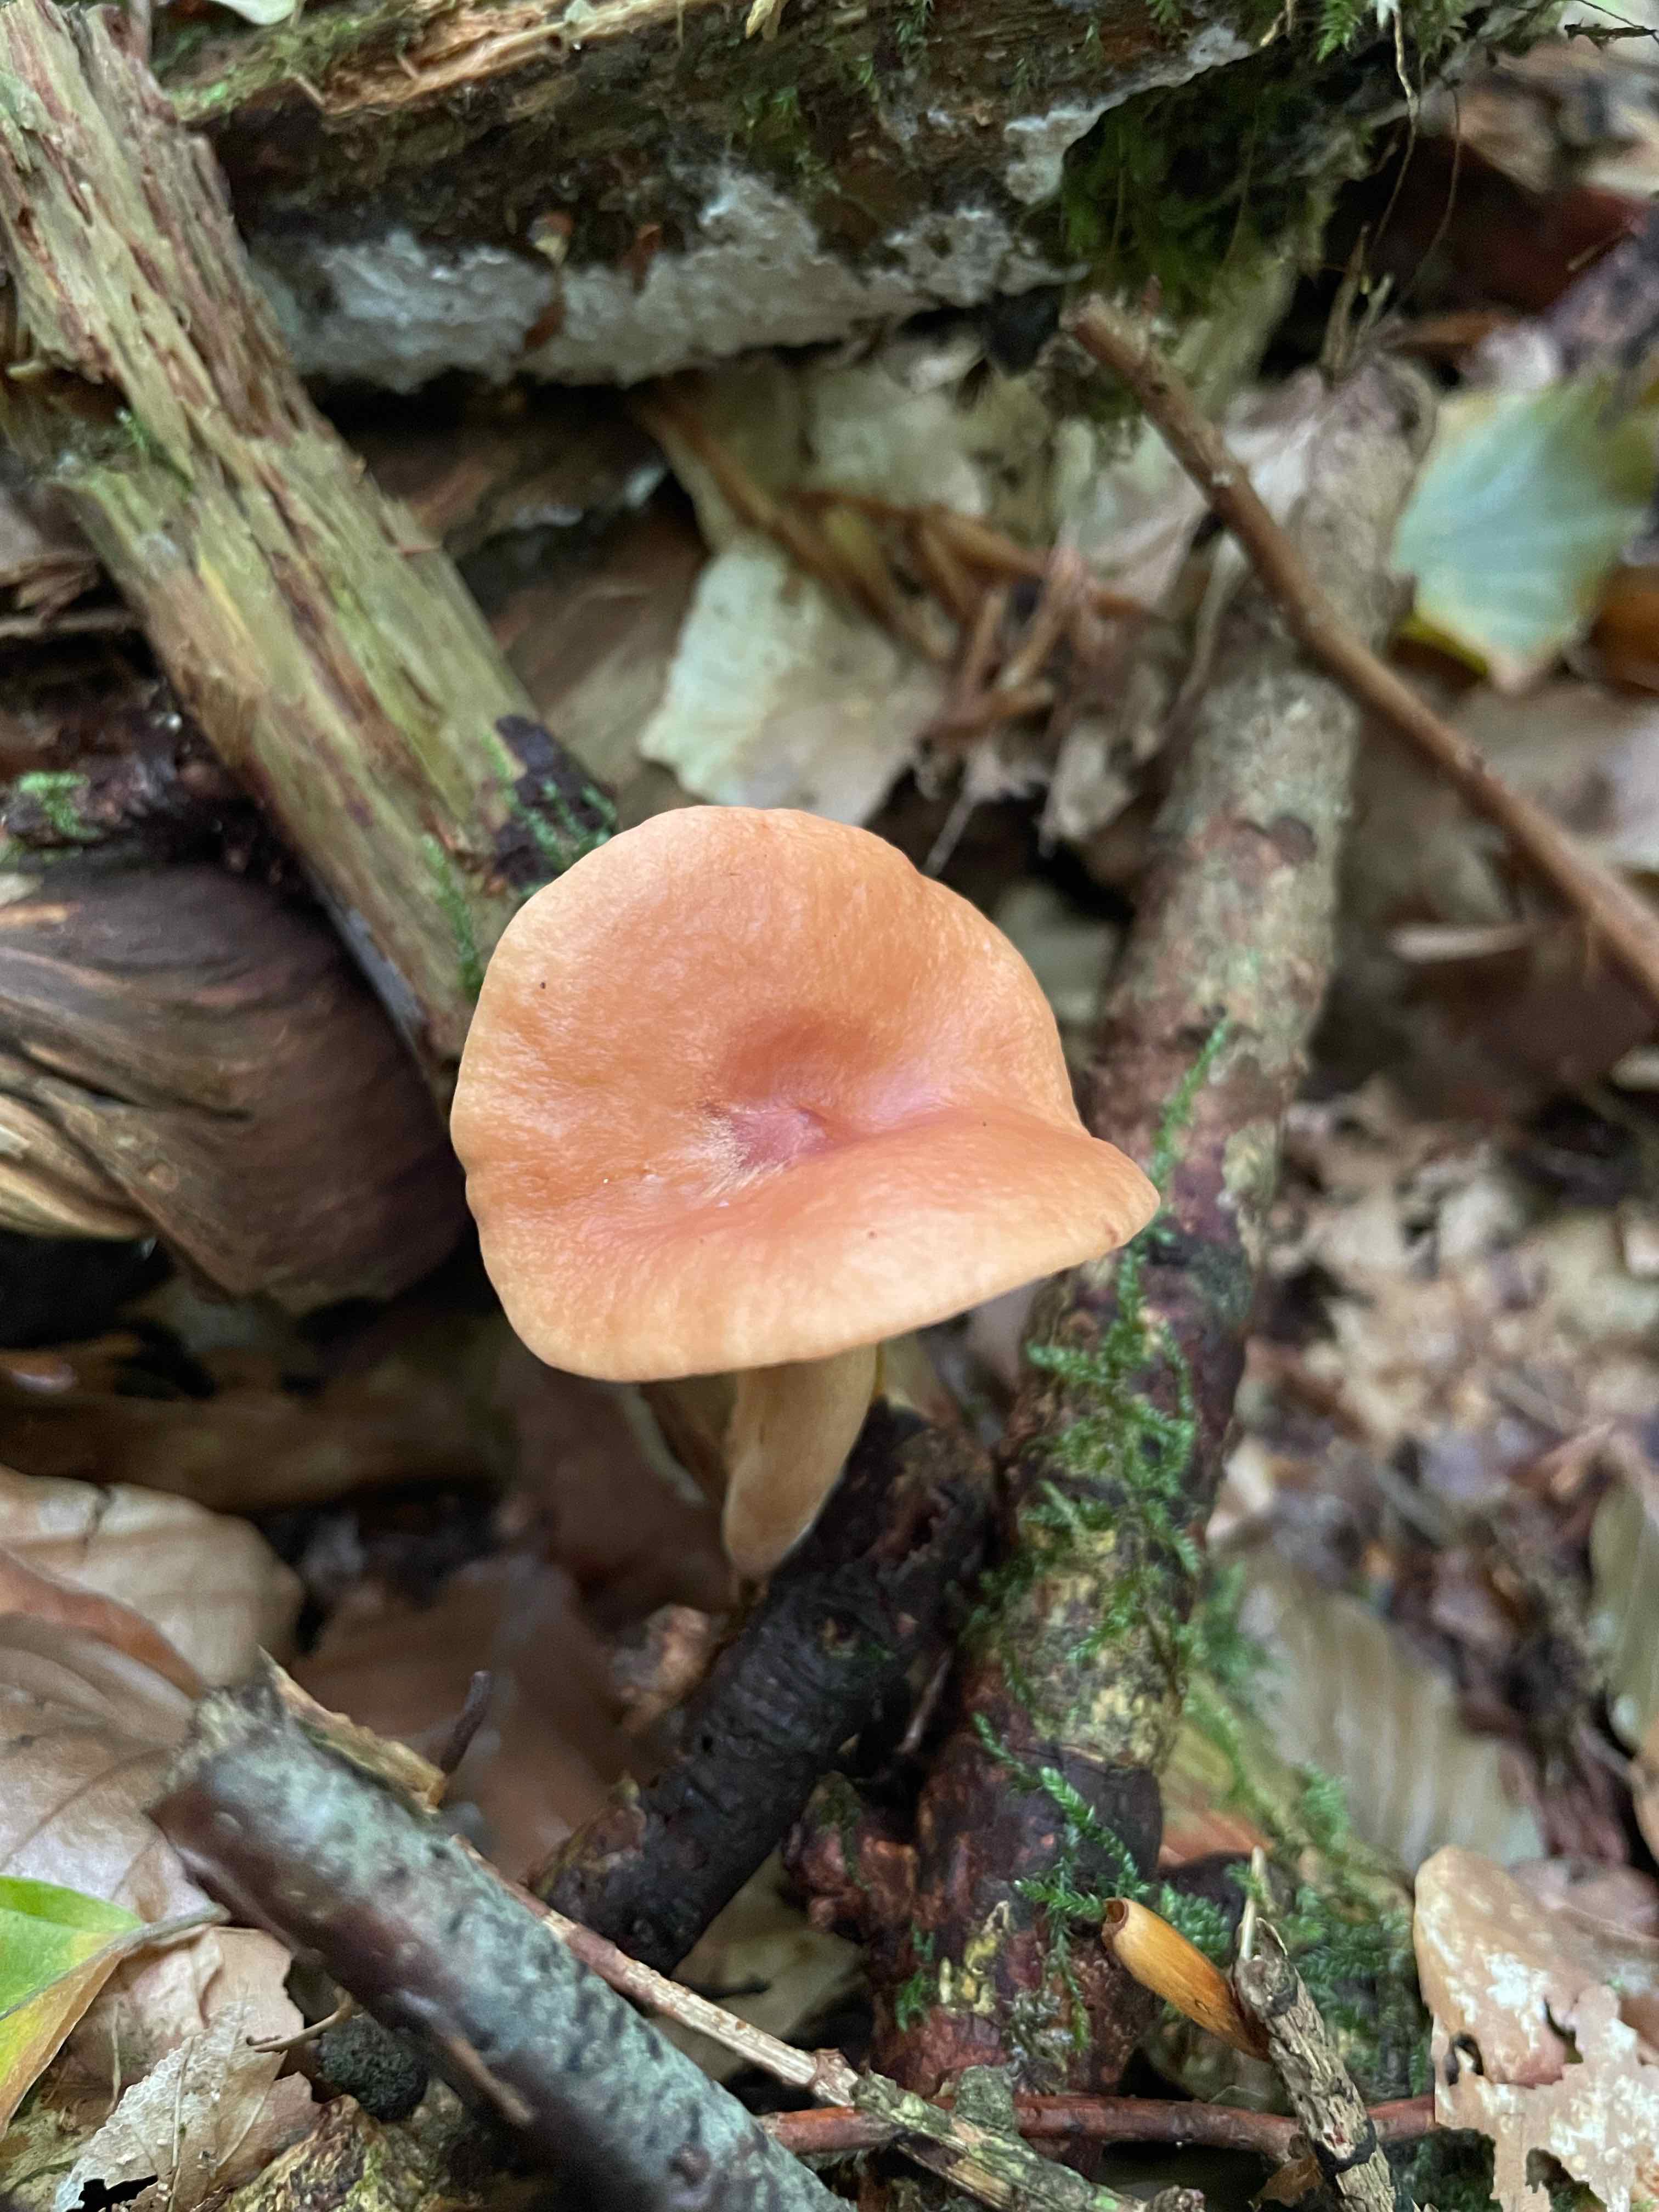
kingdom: Fungi
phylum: Basidiomycota
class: Agaricomycetes
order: Russulales
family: Russulaceae
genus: Lactarius
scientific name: Lactarius
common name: mælkehat
